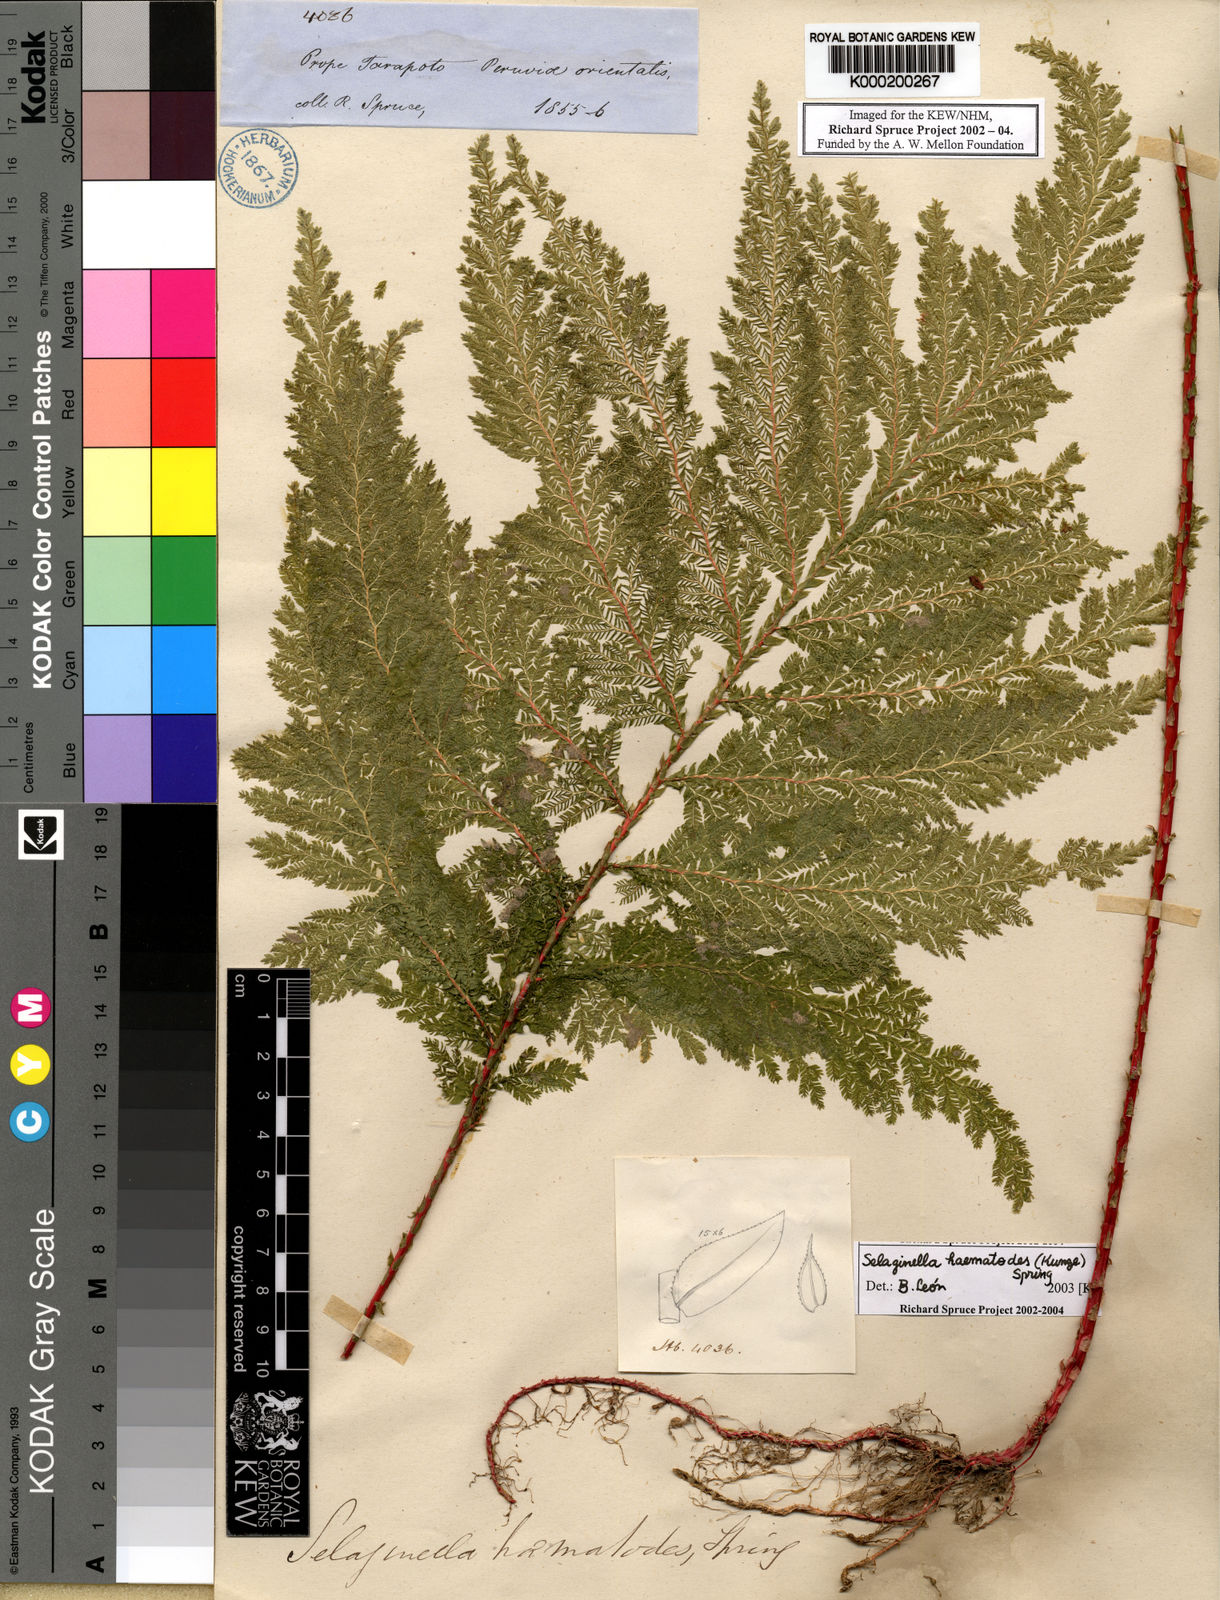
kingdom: Plantae
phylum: Tracheophyta
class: Lycopodiopsida
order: Selaginellales
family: Selaginellaceae
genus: Selaginella
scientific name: Selaginella haematodes
